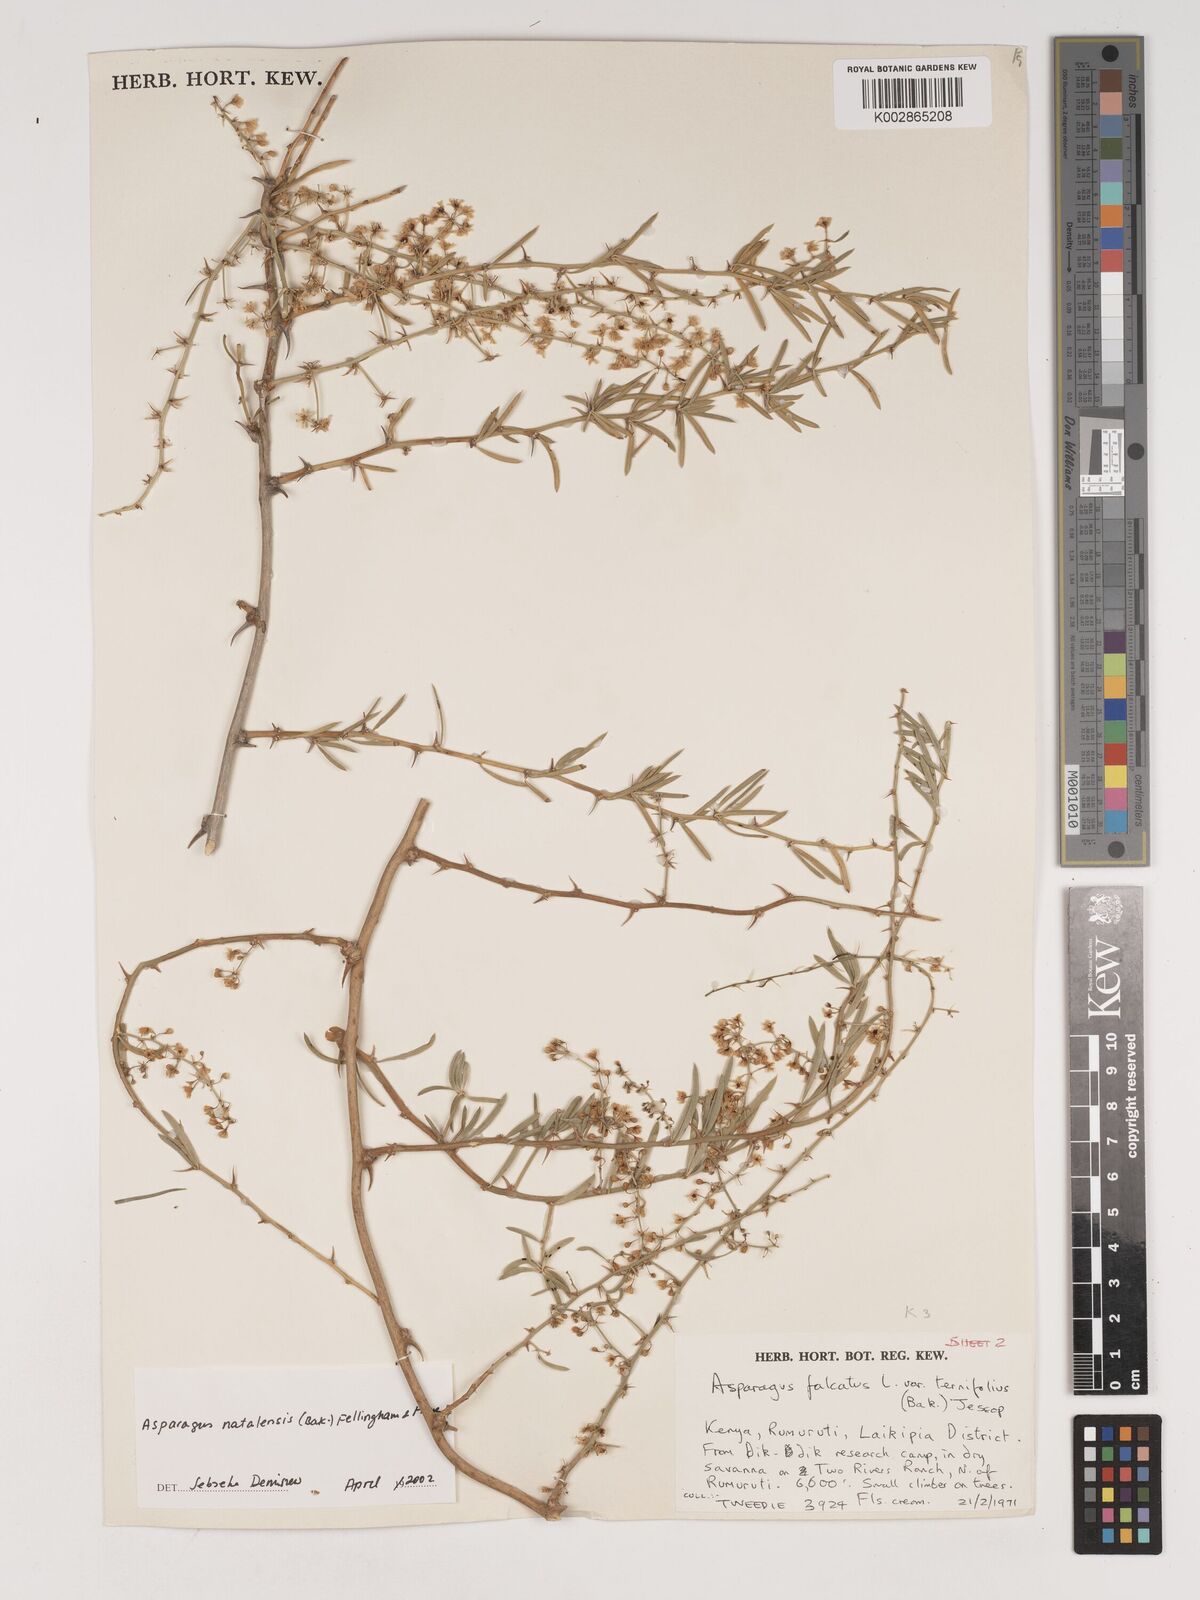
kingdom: Plantae
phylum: Tracheophyta
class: Liliopsida
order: Asparagales
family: Asparagaceae
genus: Asparagus
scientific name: Asparagus natalensis
